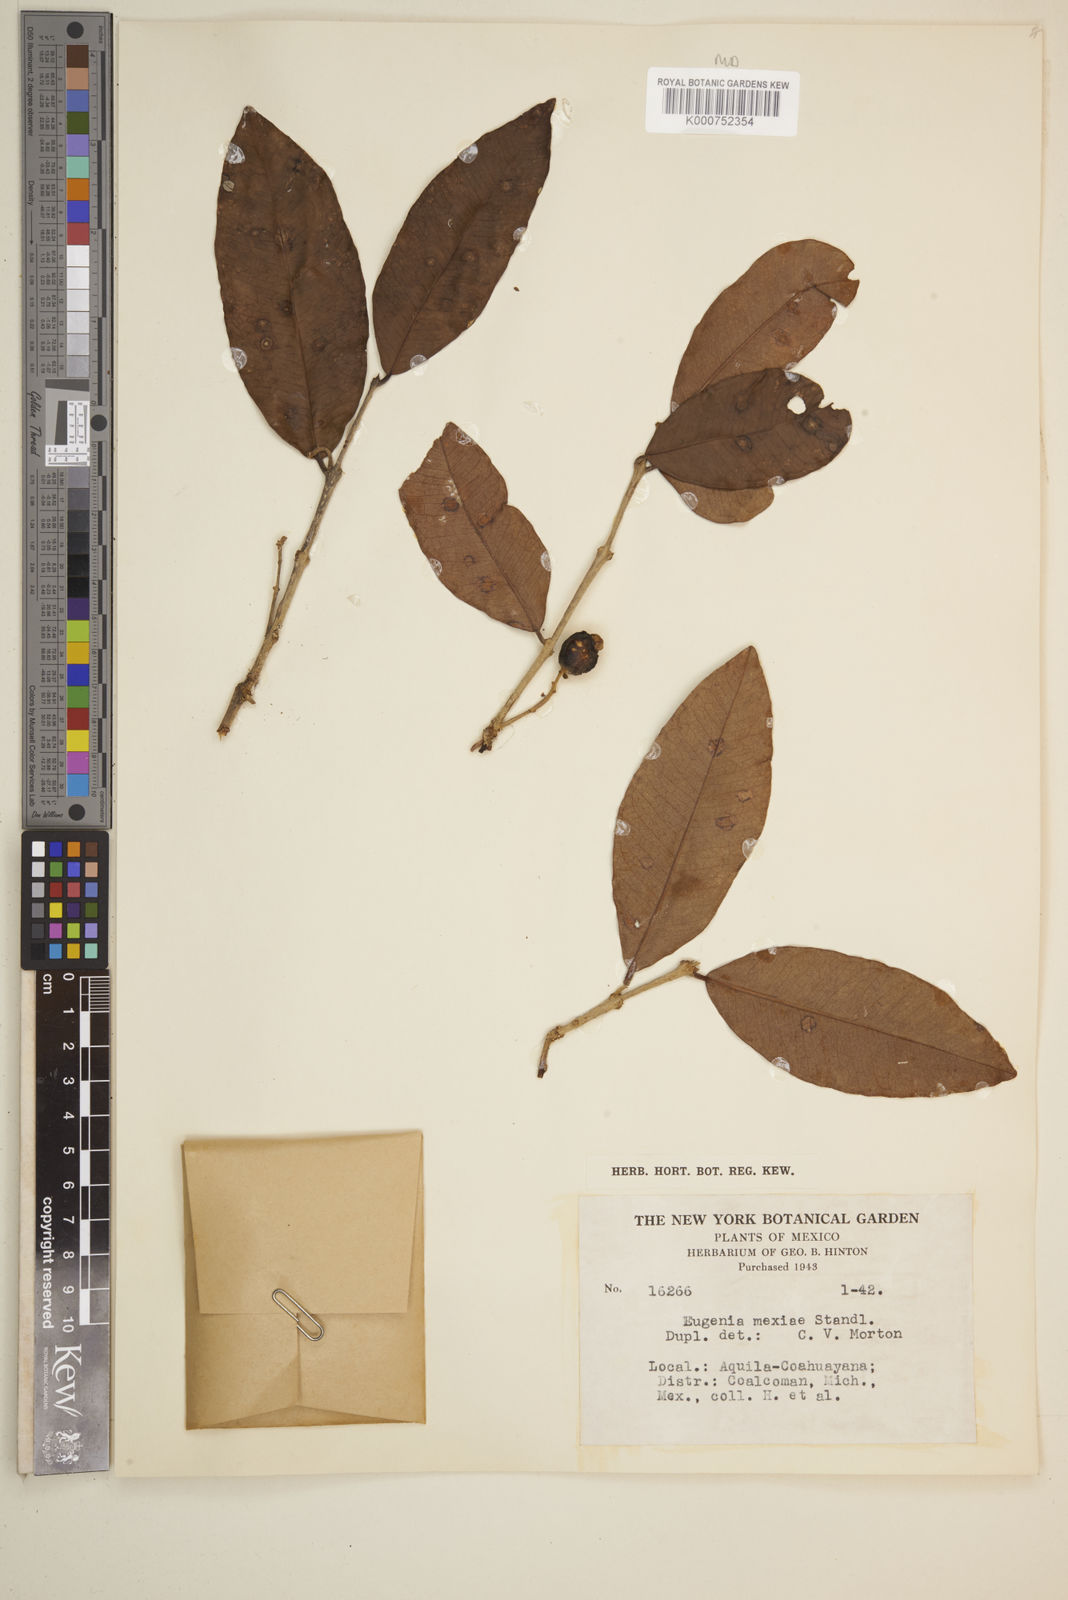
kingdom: Plantae
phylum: Tracheophyta
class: Magnoliopsida
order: Myrtales
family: Myrtaceae
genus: Eugenia
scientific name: Eugenia salamensis
